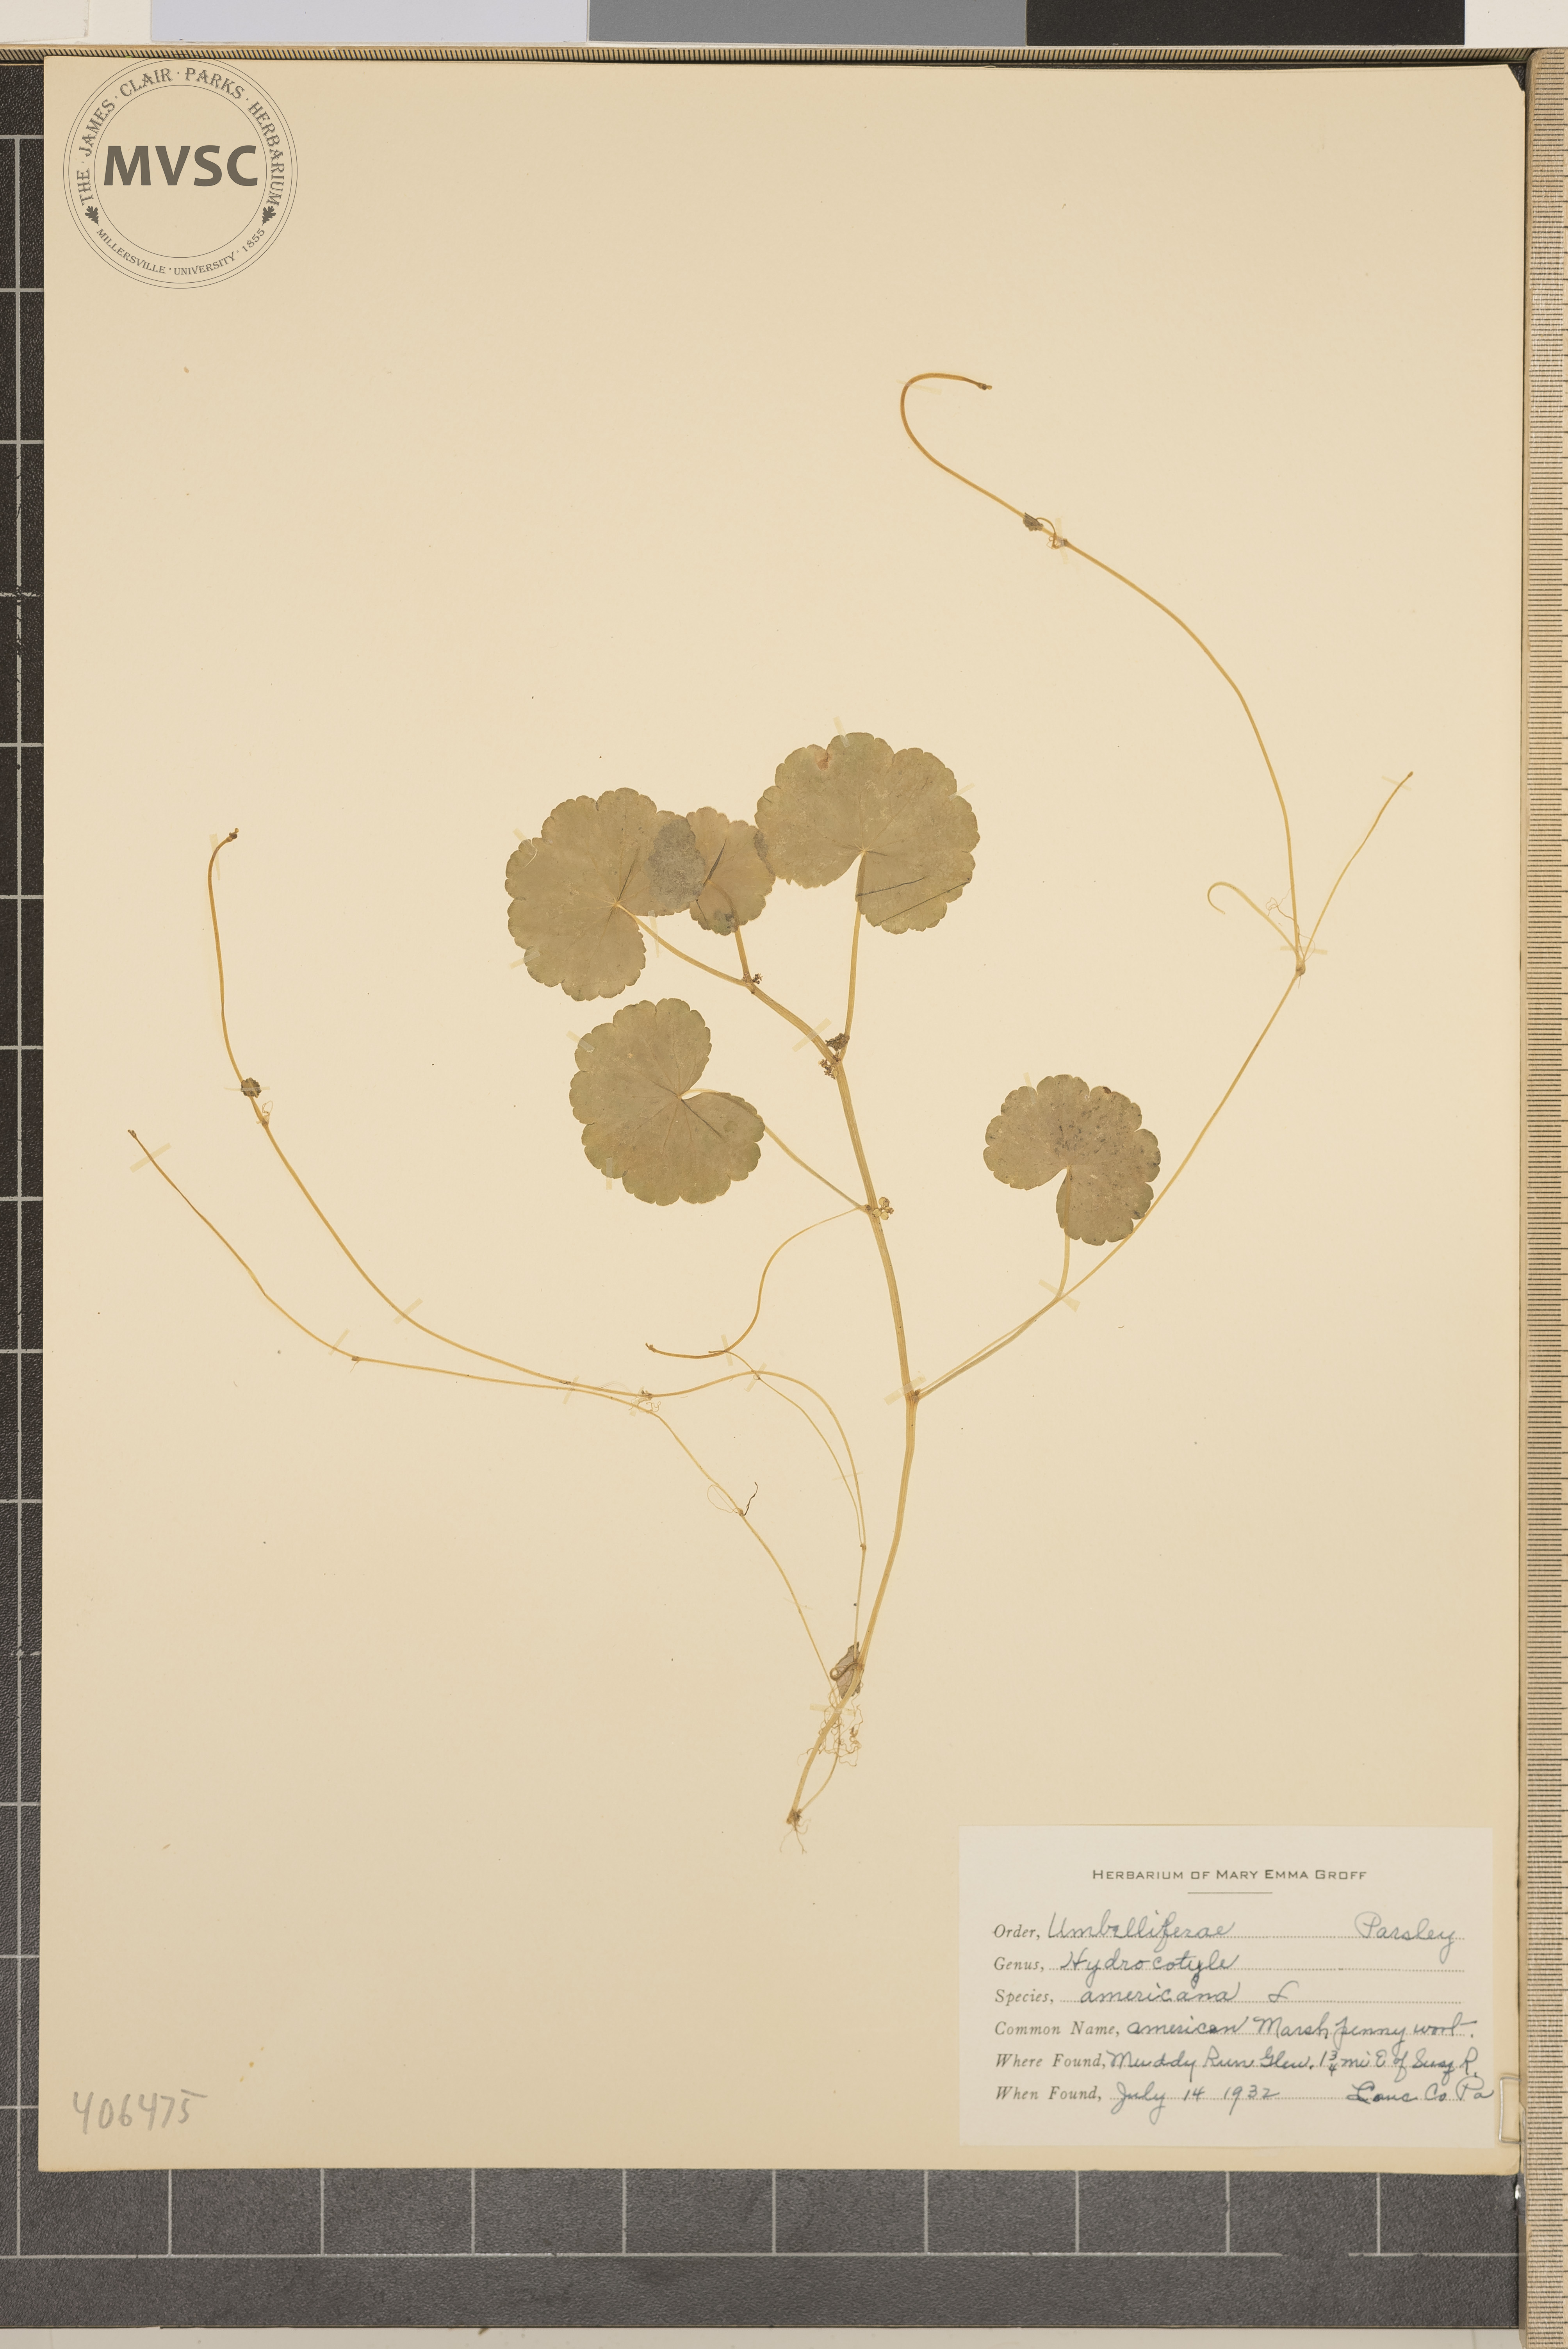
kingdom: Plantae
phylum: Tracheophyta
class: Magnoliopsida
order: Apiales
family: Araliaceae
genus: Hydrocotyle
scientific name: Hydrocotyle americana
